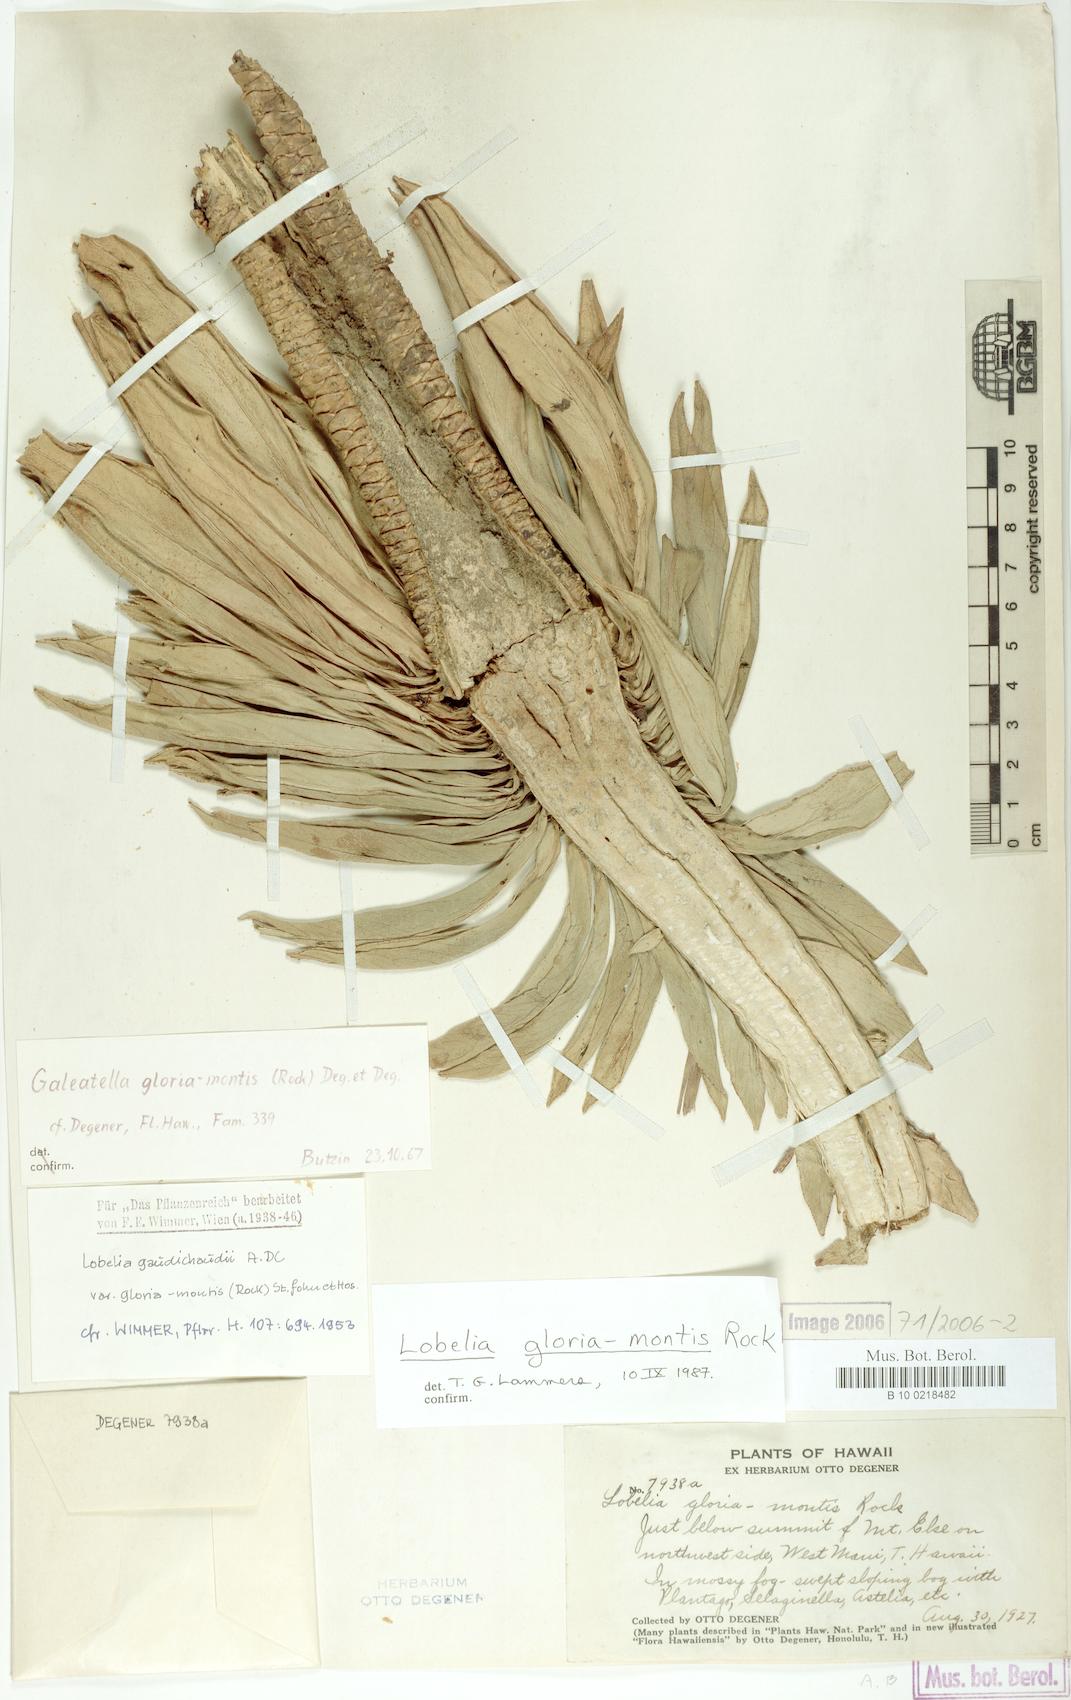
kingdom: Plantae
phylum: Tracheophyta
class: Magnoliopsida
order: Asterales
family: Campanulaceae
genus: Lobelia
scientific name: Lobelia gloria-montis
